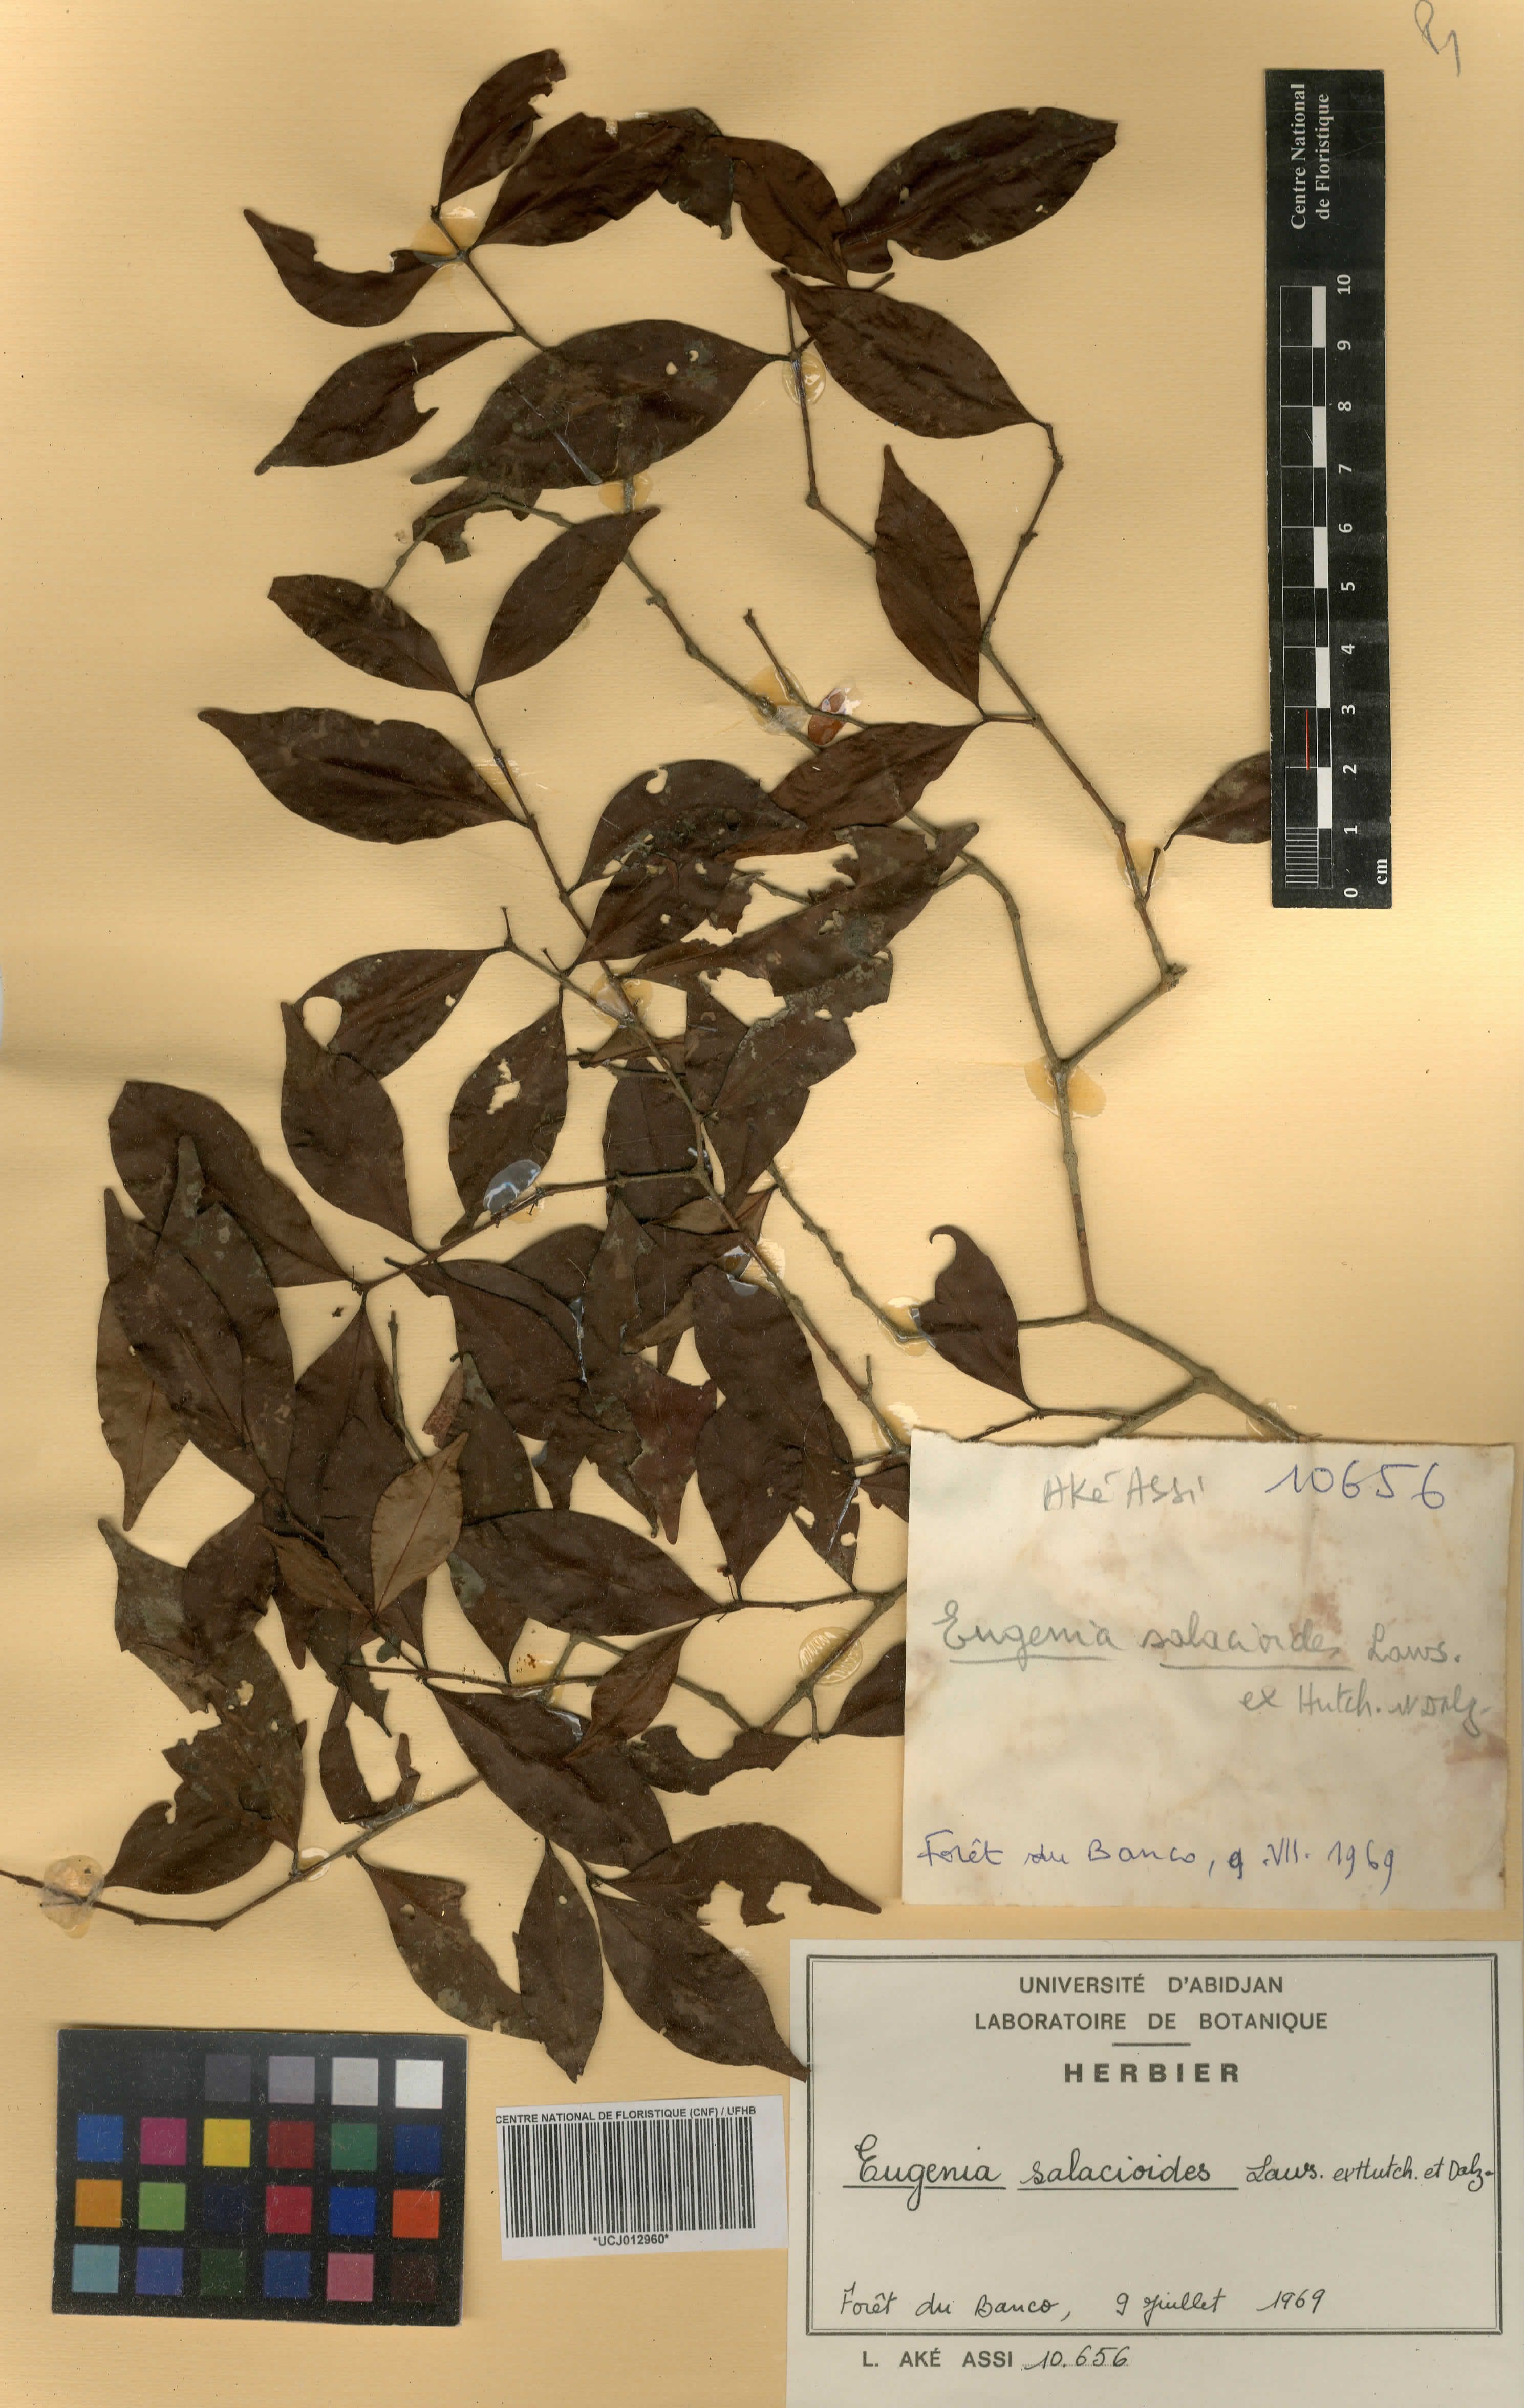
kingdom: Plantae
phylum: Tracheophyta
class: Magnoliopsida
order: Myrtales
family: Myrtaceae
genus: Eugenia
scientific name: Eugenia salacioides
